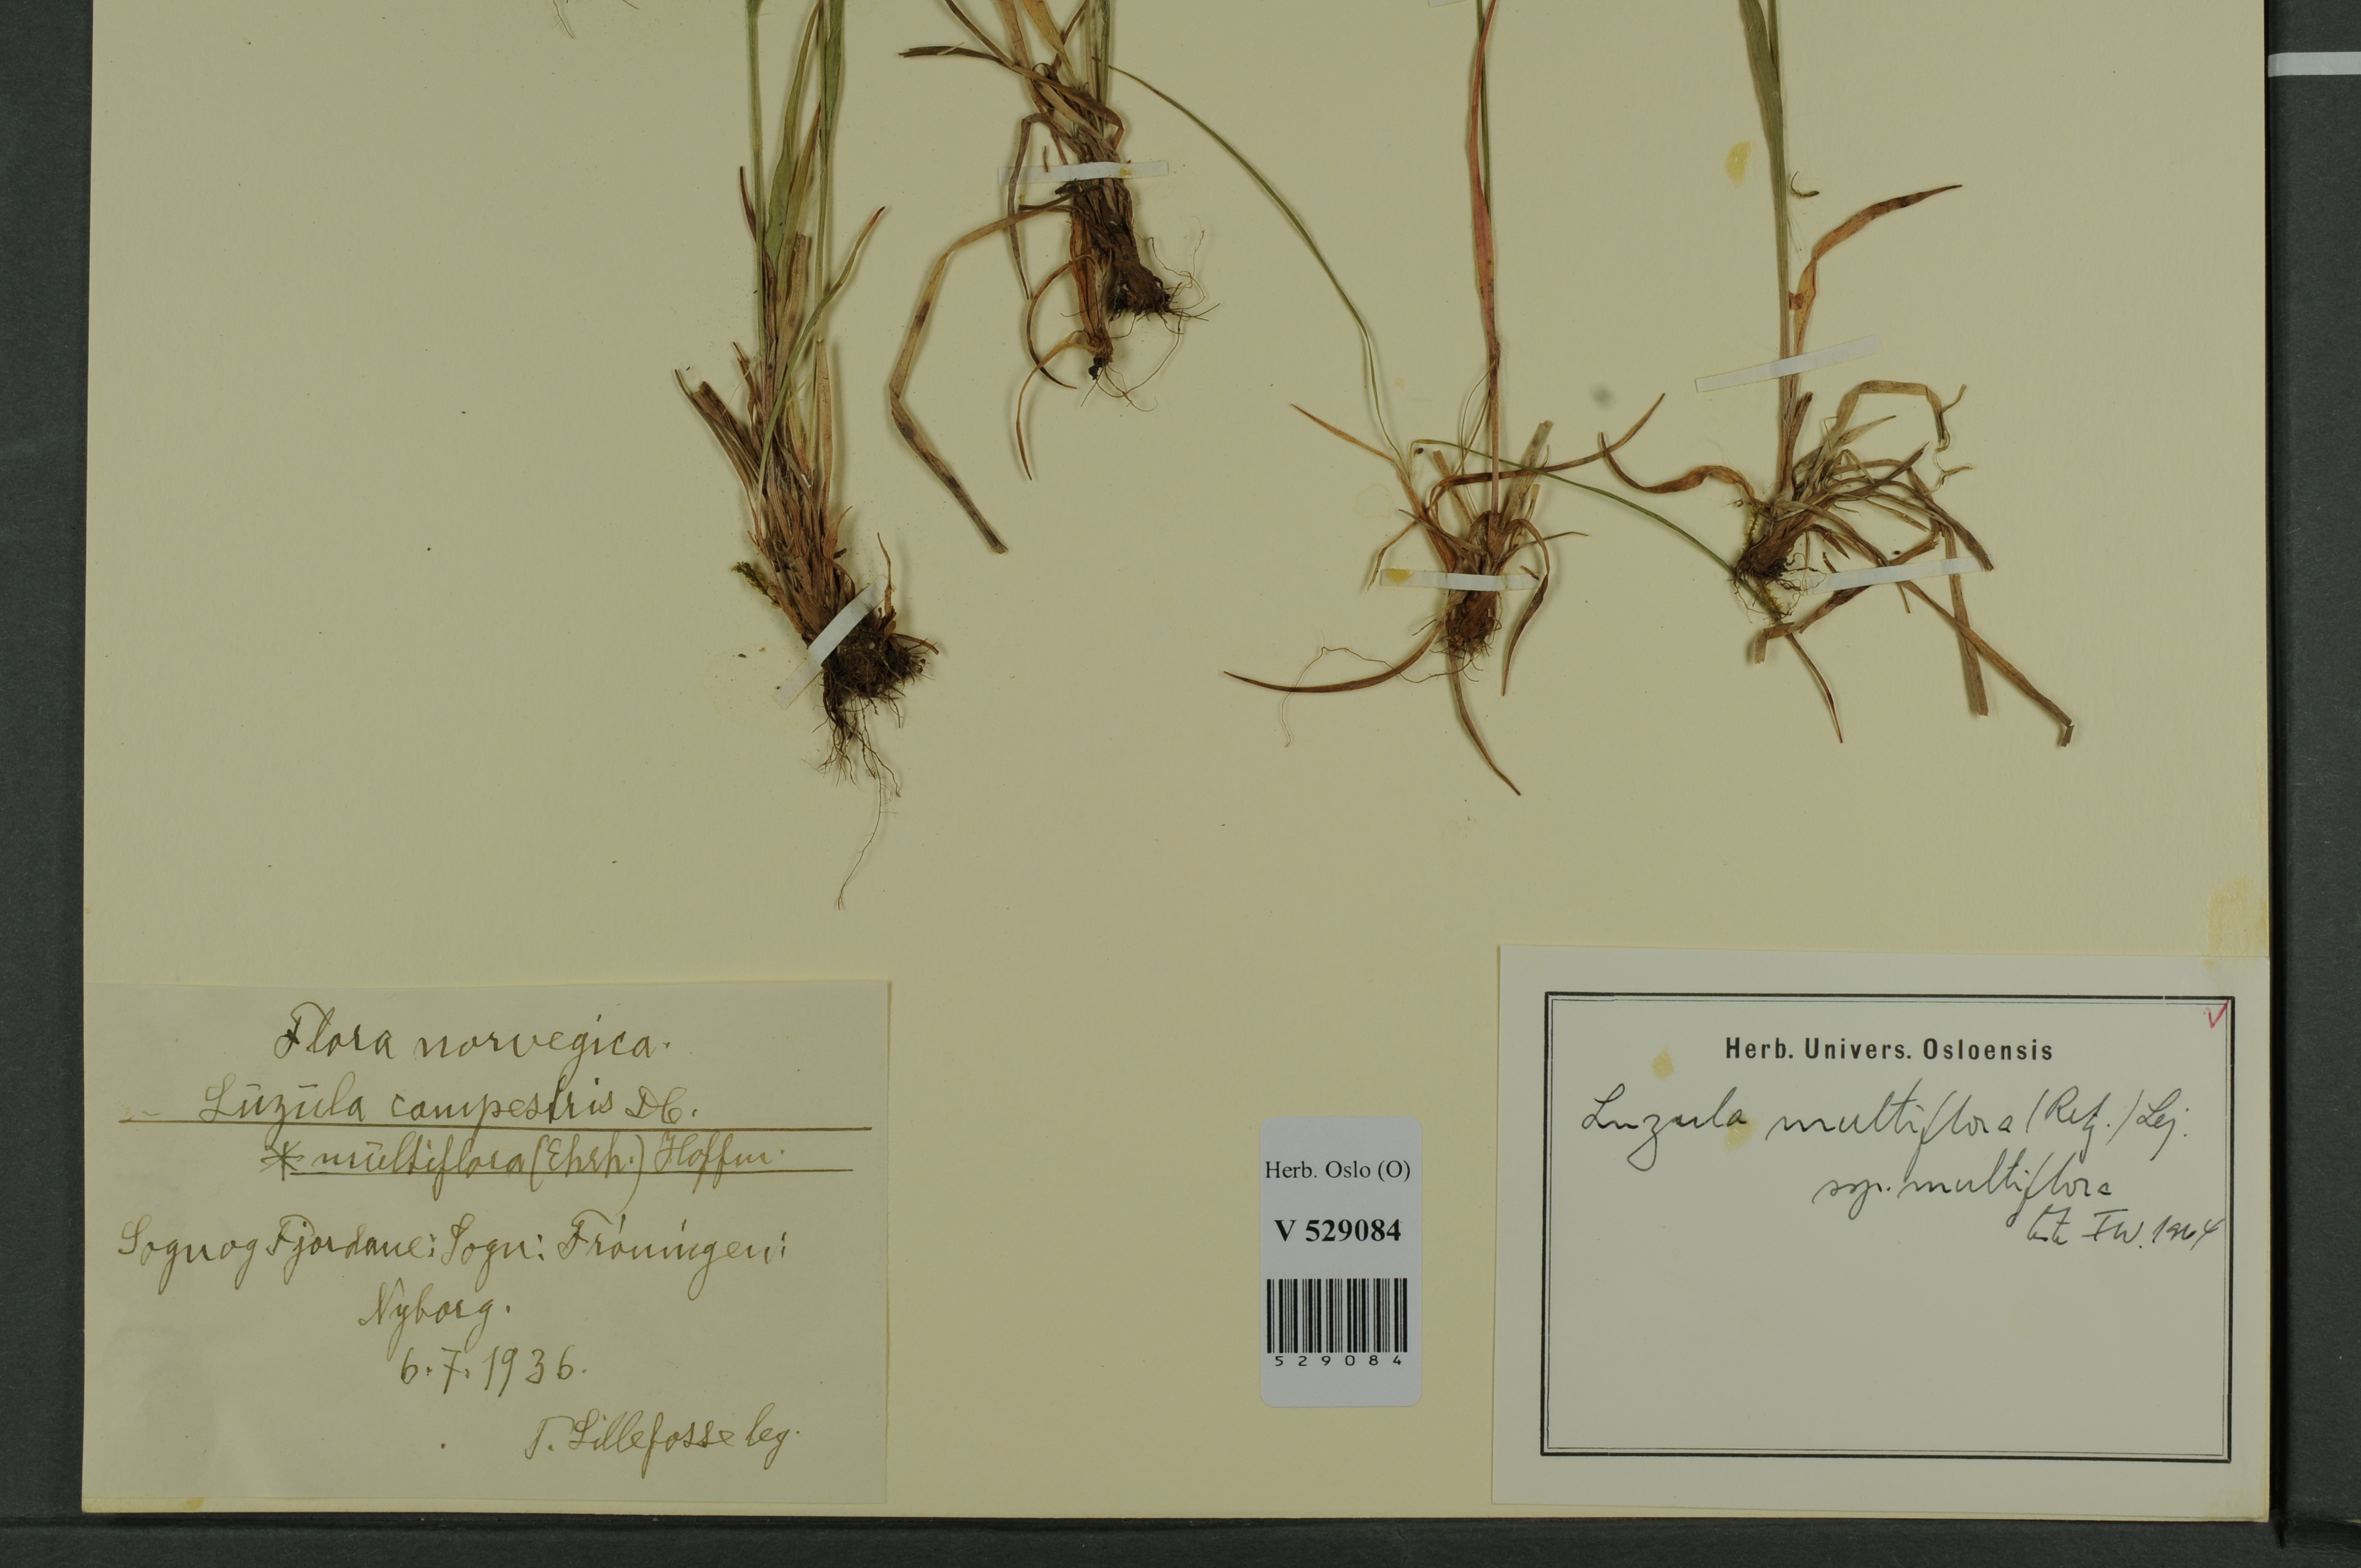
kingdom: Plantae
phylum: Tracheophyta
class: Liliopsida
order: Poales
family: Juncaceae
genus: Luzula
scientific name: Luzula multiflora
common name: Heath wood-rush
